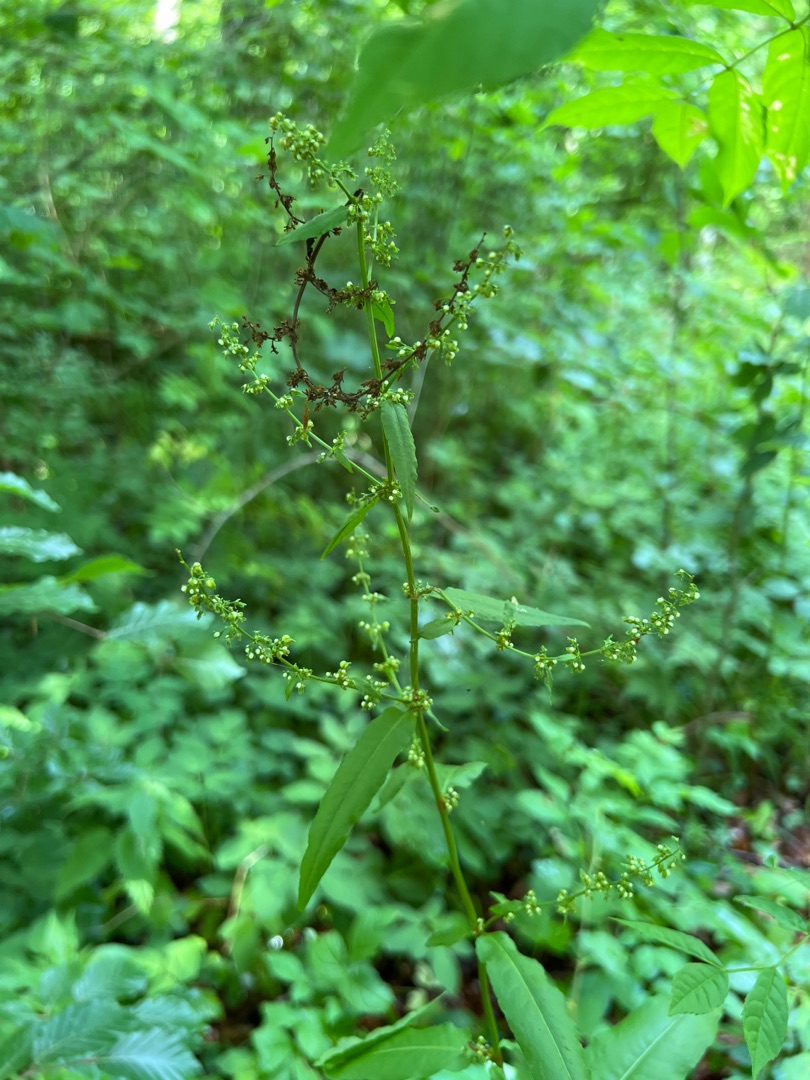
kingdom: Plantae
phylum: Tracheophyta
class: Magnoliopsida
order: Caryophyllales
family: Polygonaceae
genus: Rumex
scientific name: Rumex sanguineus
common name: Skov-skræppe
